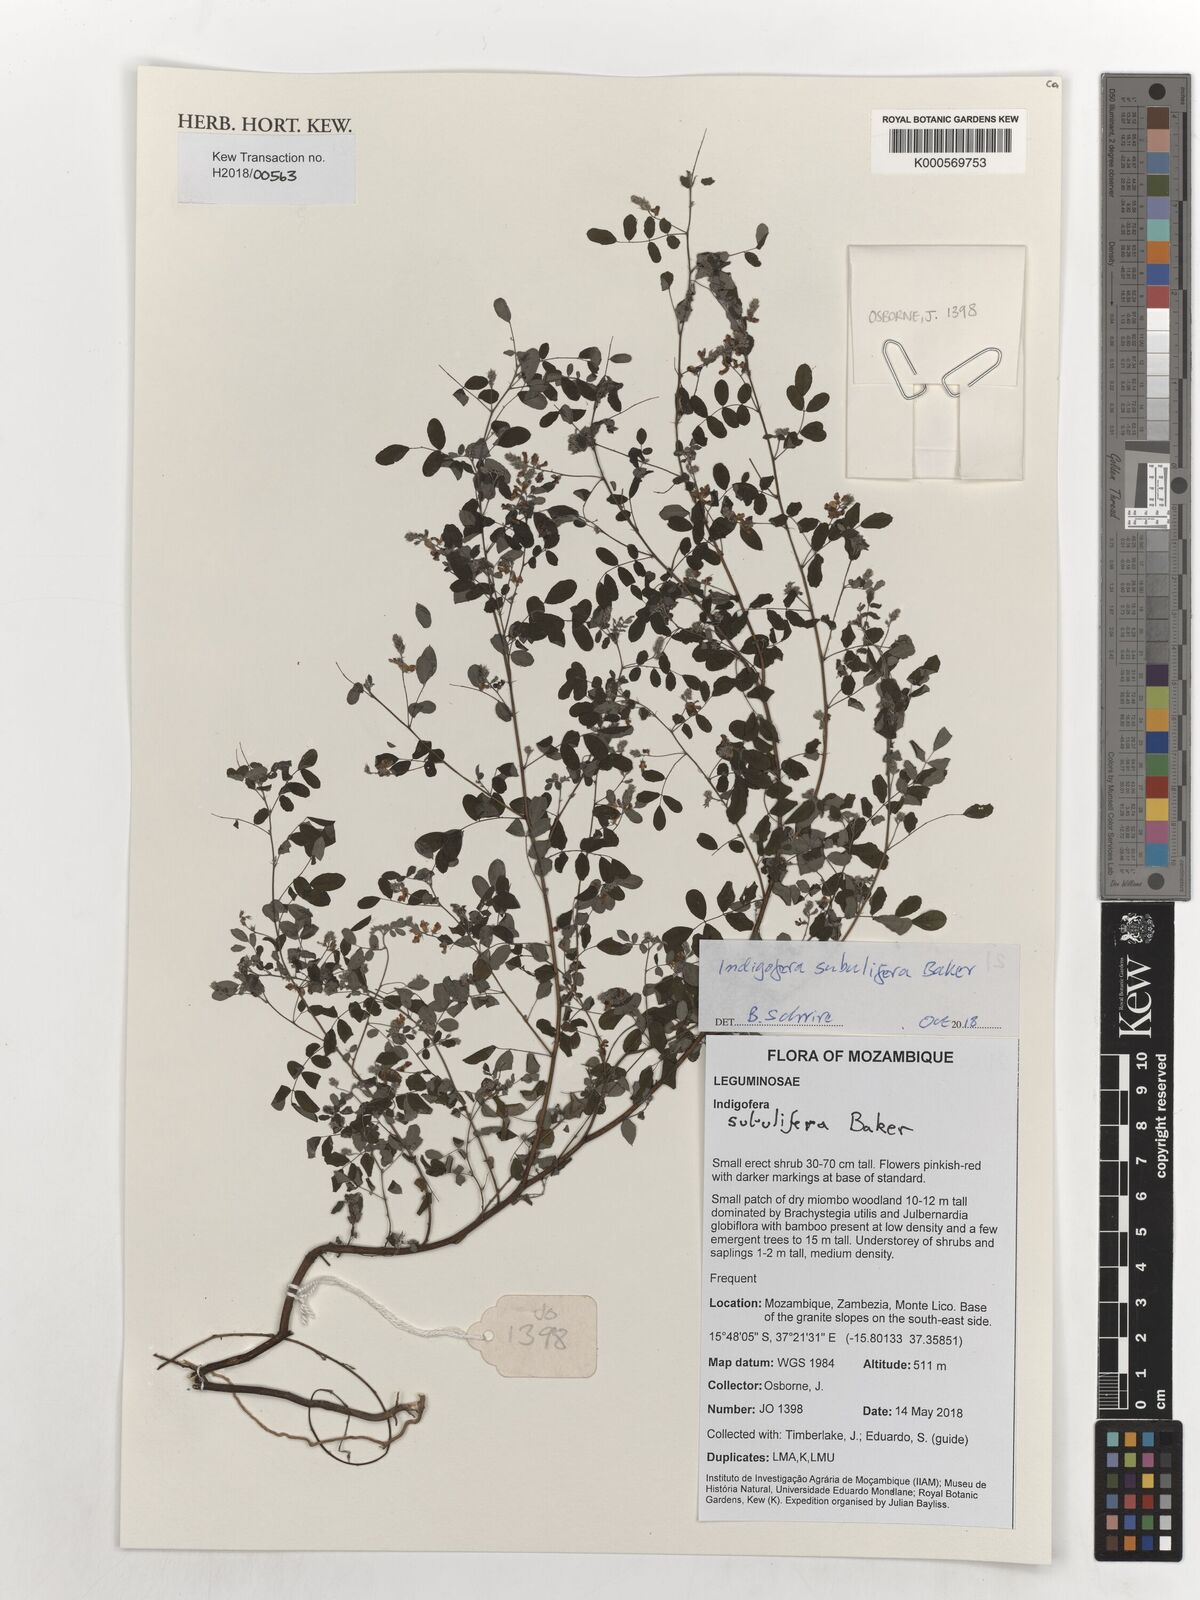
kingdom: Plantae
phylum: Tracheophyta
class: Magnoliopsida
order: Fabales
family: Fabaceae
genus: Indigofera
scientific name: Indigofera subulifera
